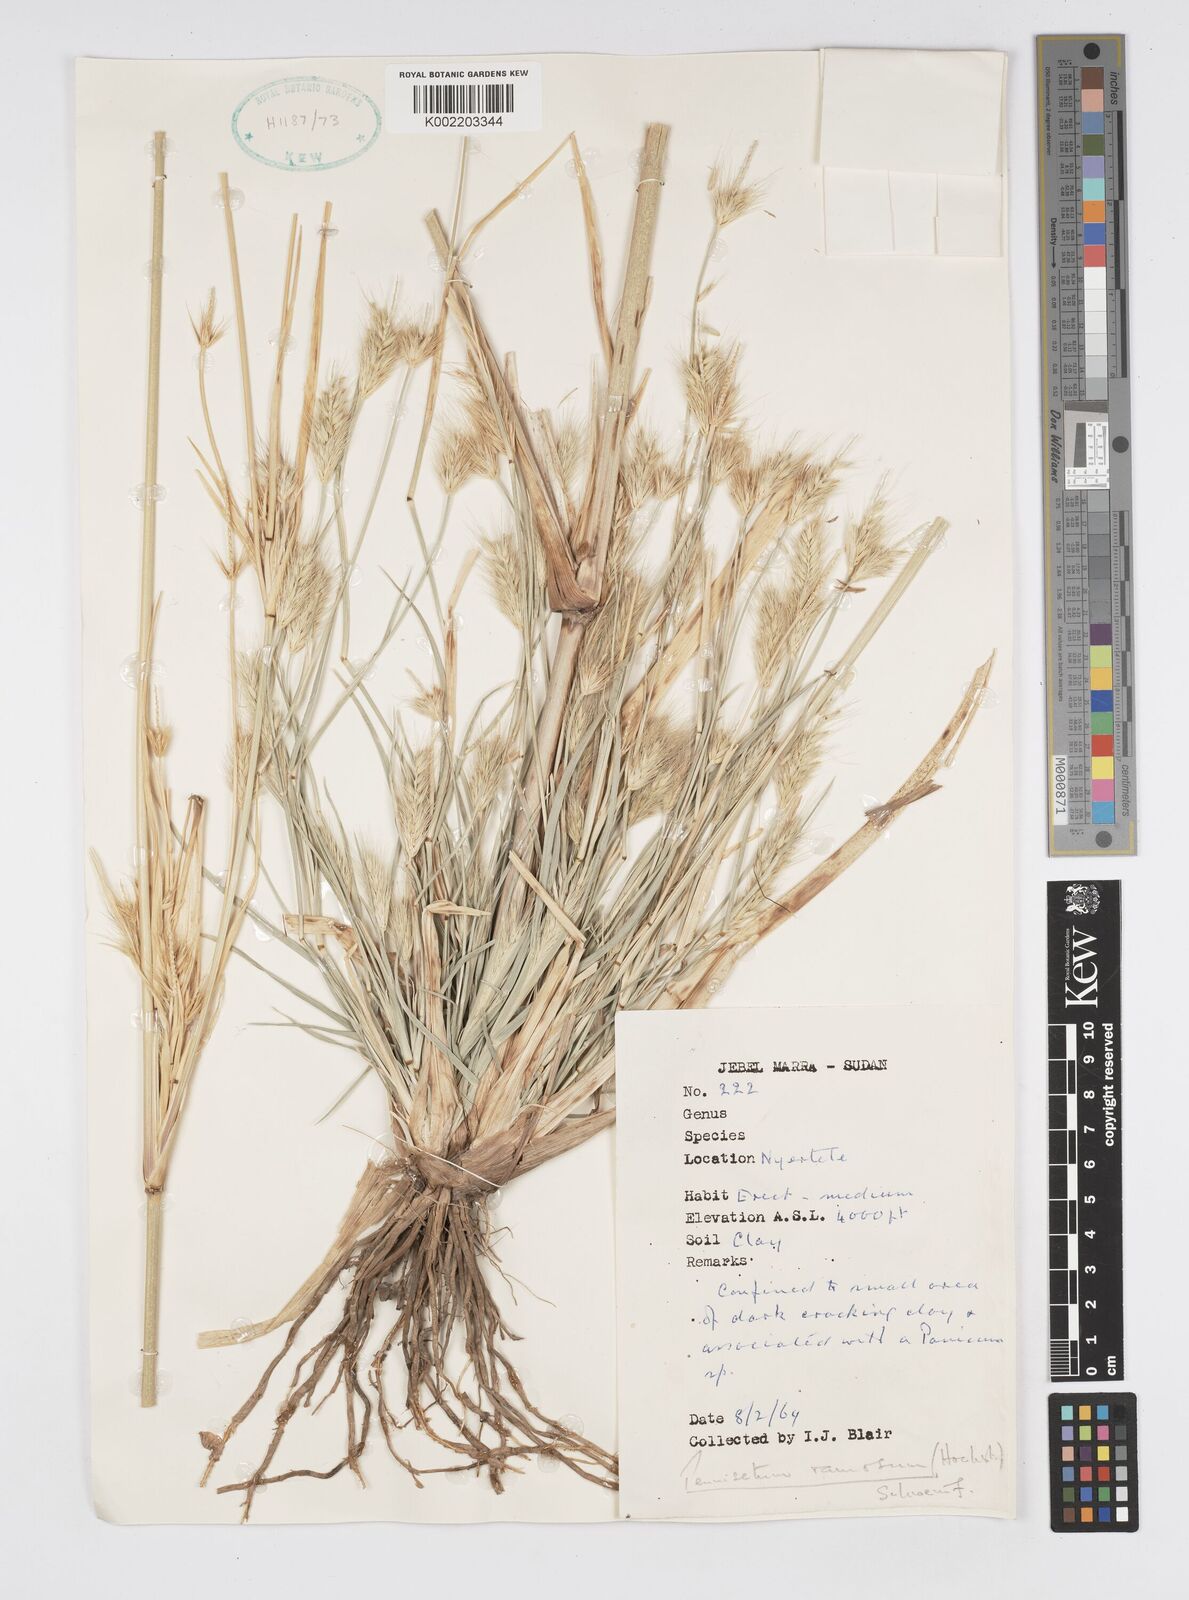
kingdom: Plantae
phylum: Tracheophyta
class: Liliopsida
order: Poales
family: Poaceae
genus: Cenchrus
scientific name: Cenchrus ramosus
